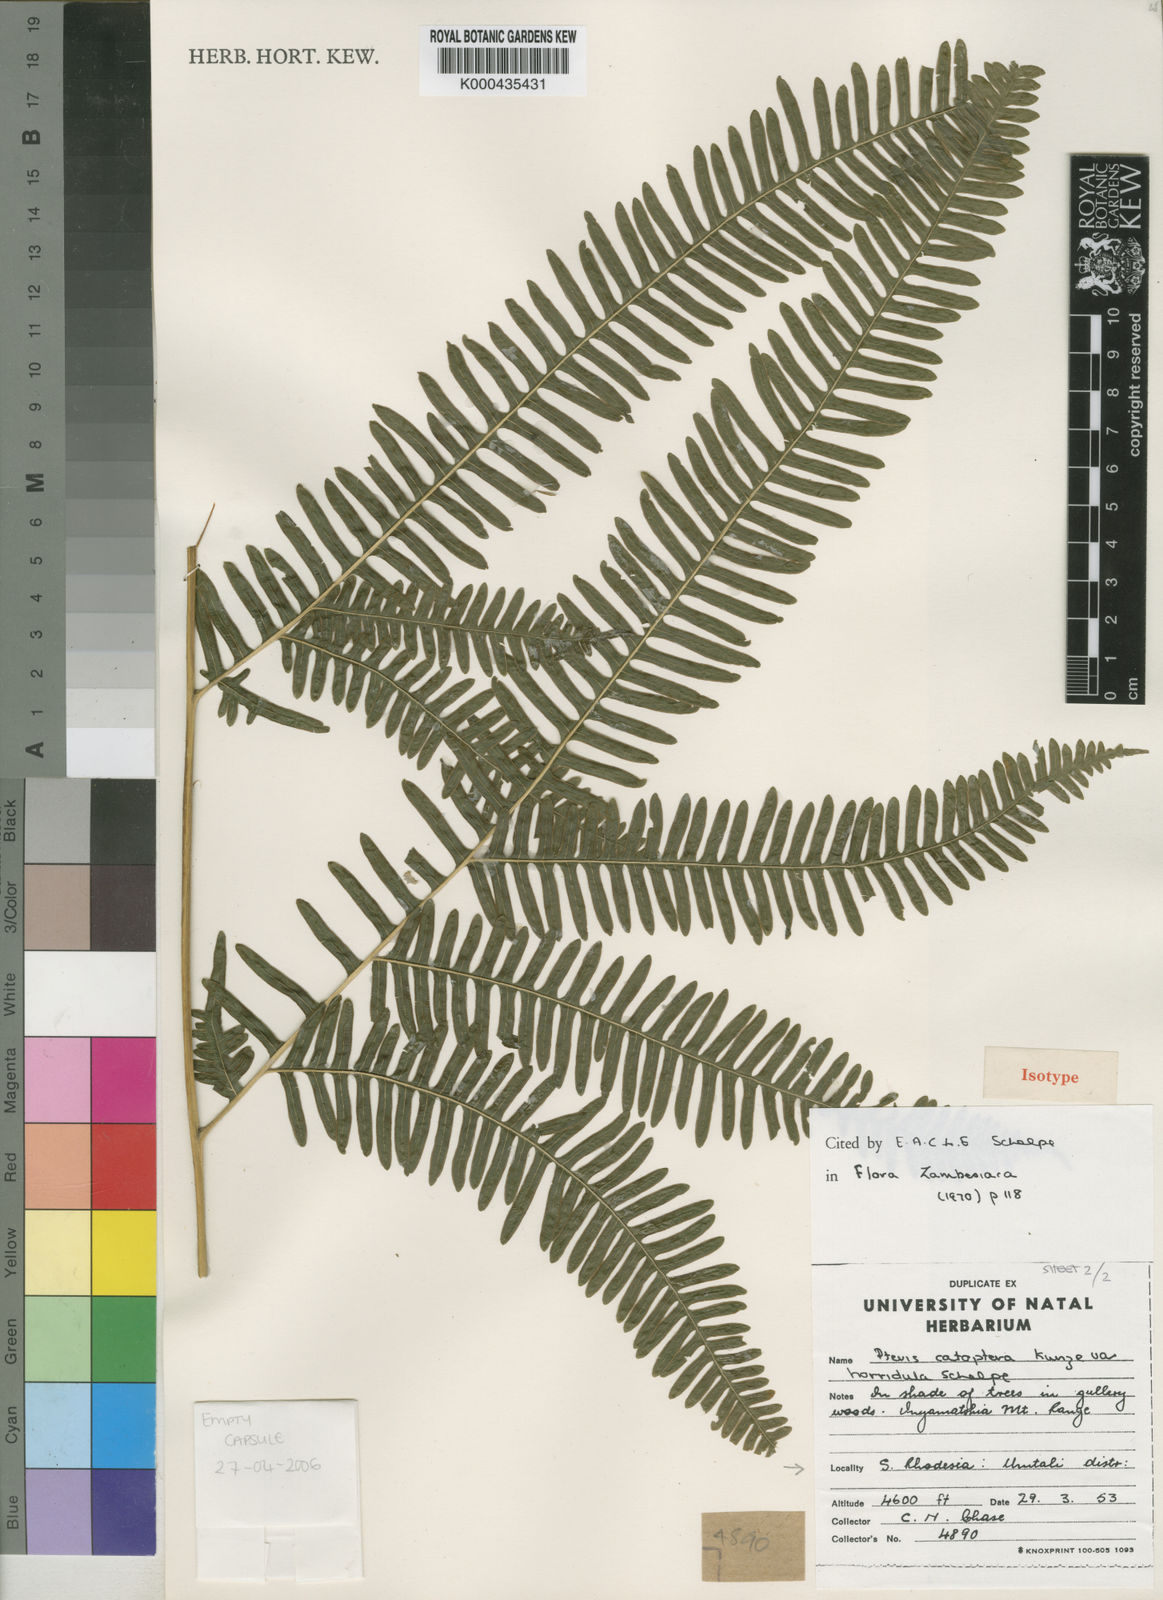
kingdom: Plantae
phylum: Tracheophyta
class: Polypodiopsida
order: Polypodiales
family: Pteridaceae
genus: Pteris
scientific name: Pteris catoptera
